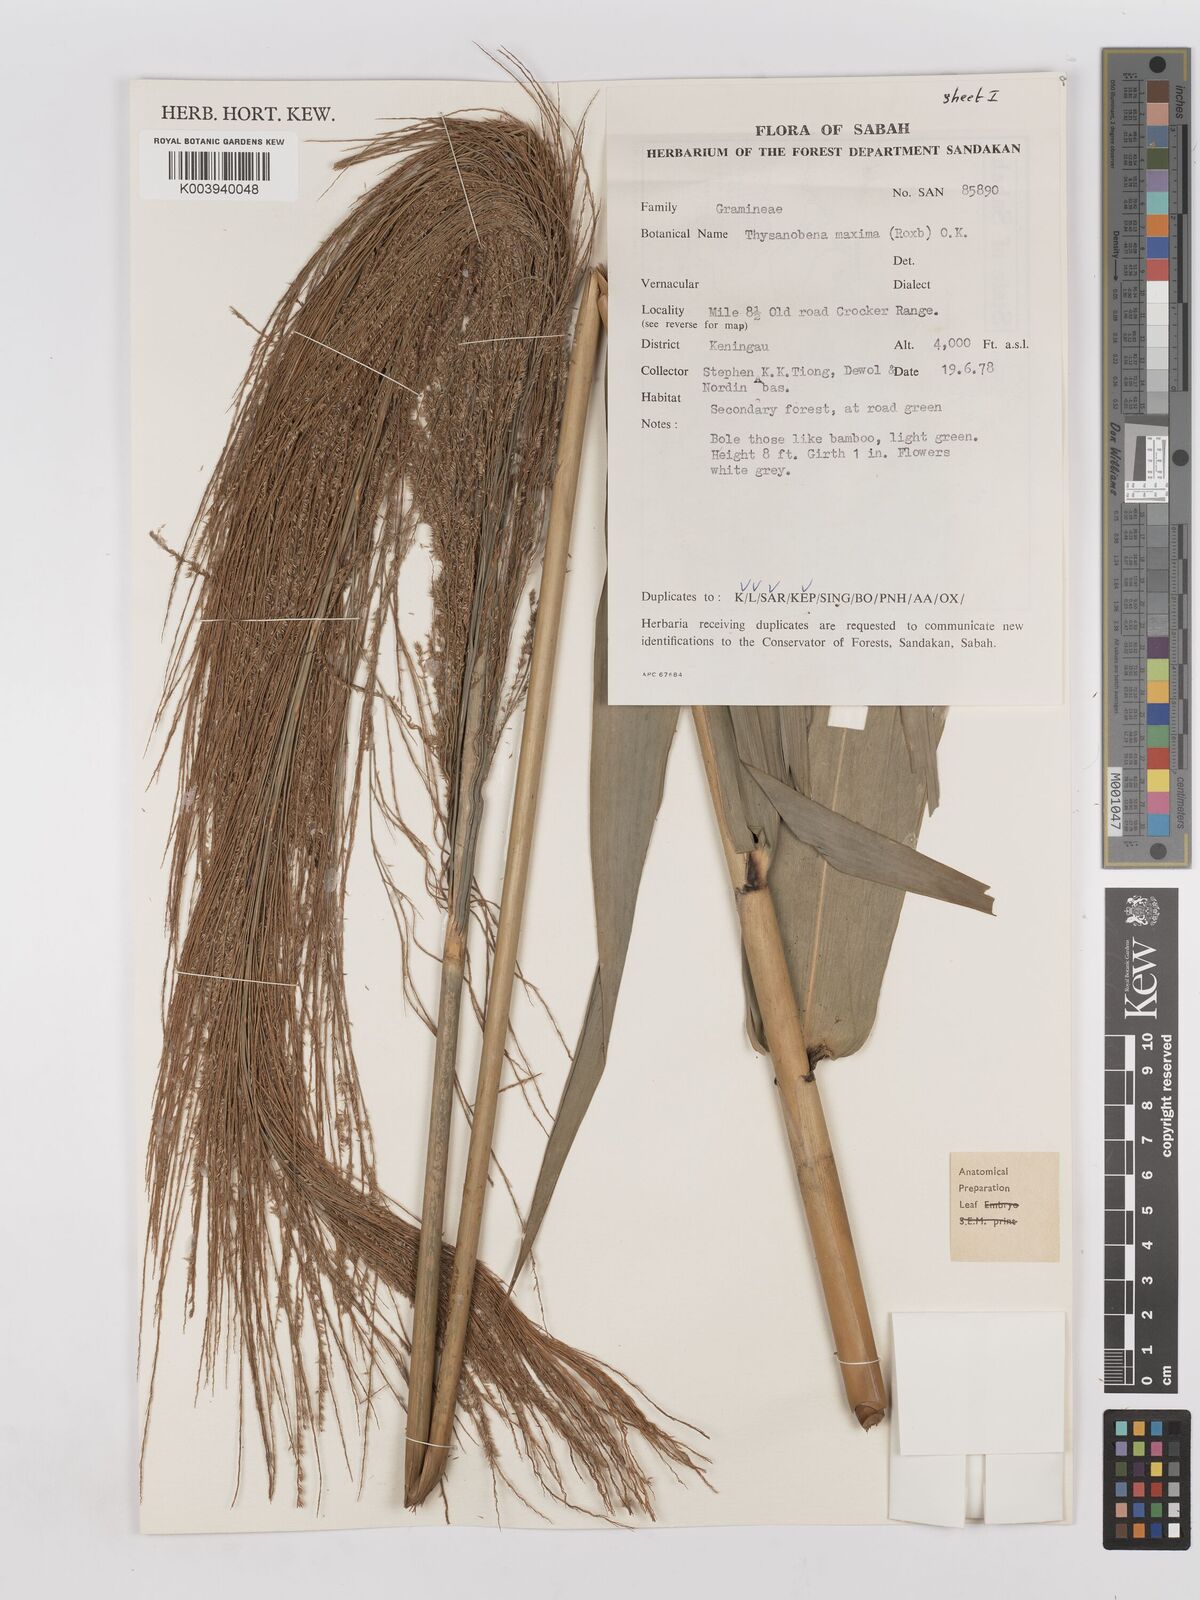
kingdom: Plantae
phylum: Tracheophyta
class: Liliopsida
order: Poales
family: Poaceae
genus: Thysanolaena
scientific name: Thysanolaena latifolia
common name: Tiger grass
